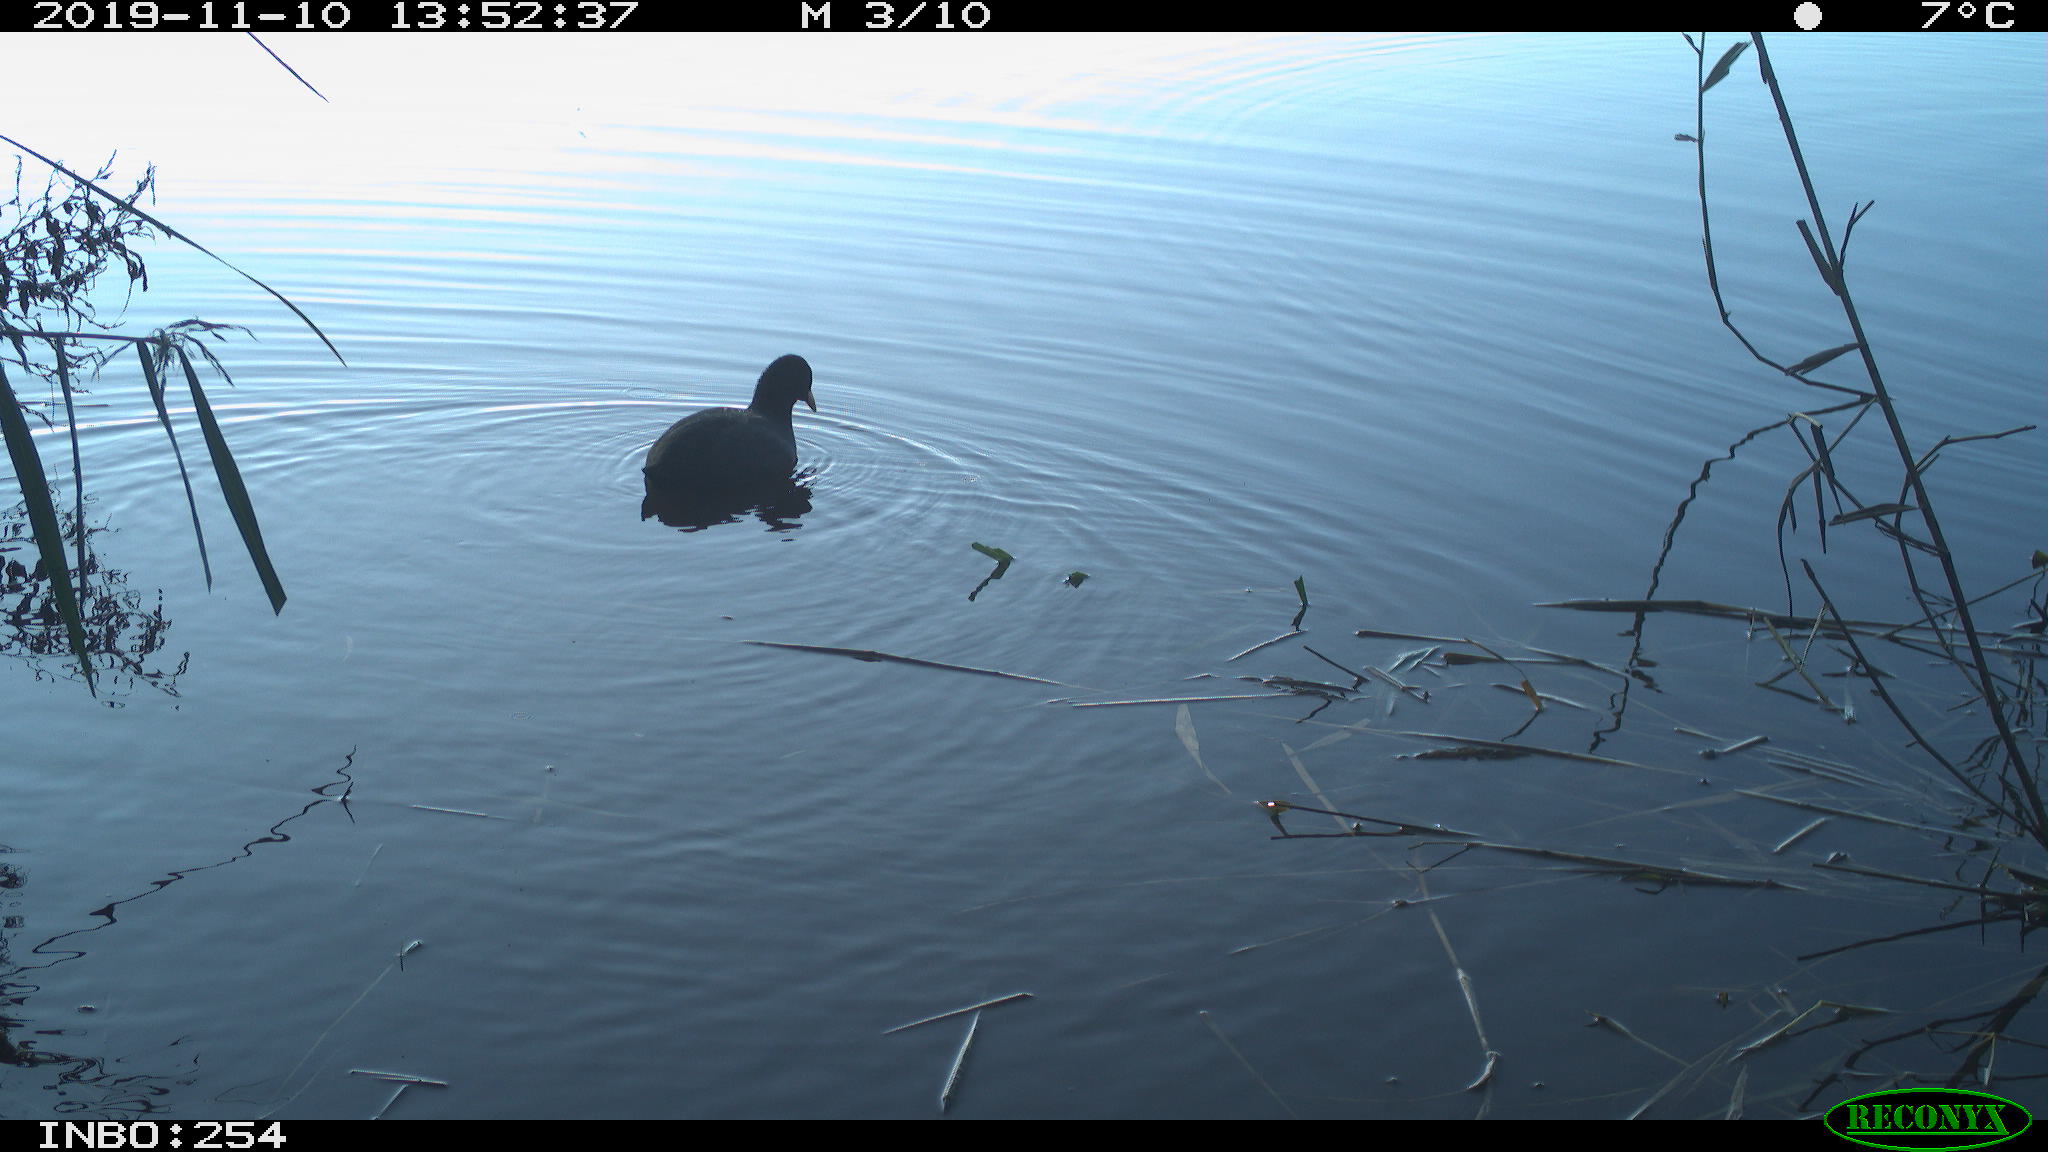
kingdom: Animalia
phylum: Chordata
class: Aves
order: Gruiformes
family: Rallidae
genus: Fulica
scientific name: Fulica atra
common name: Eurasian coot
